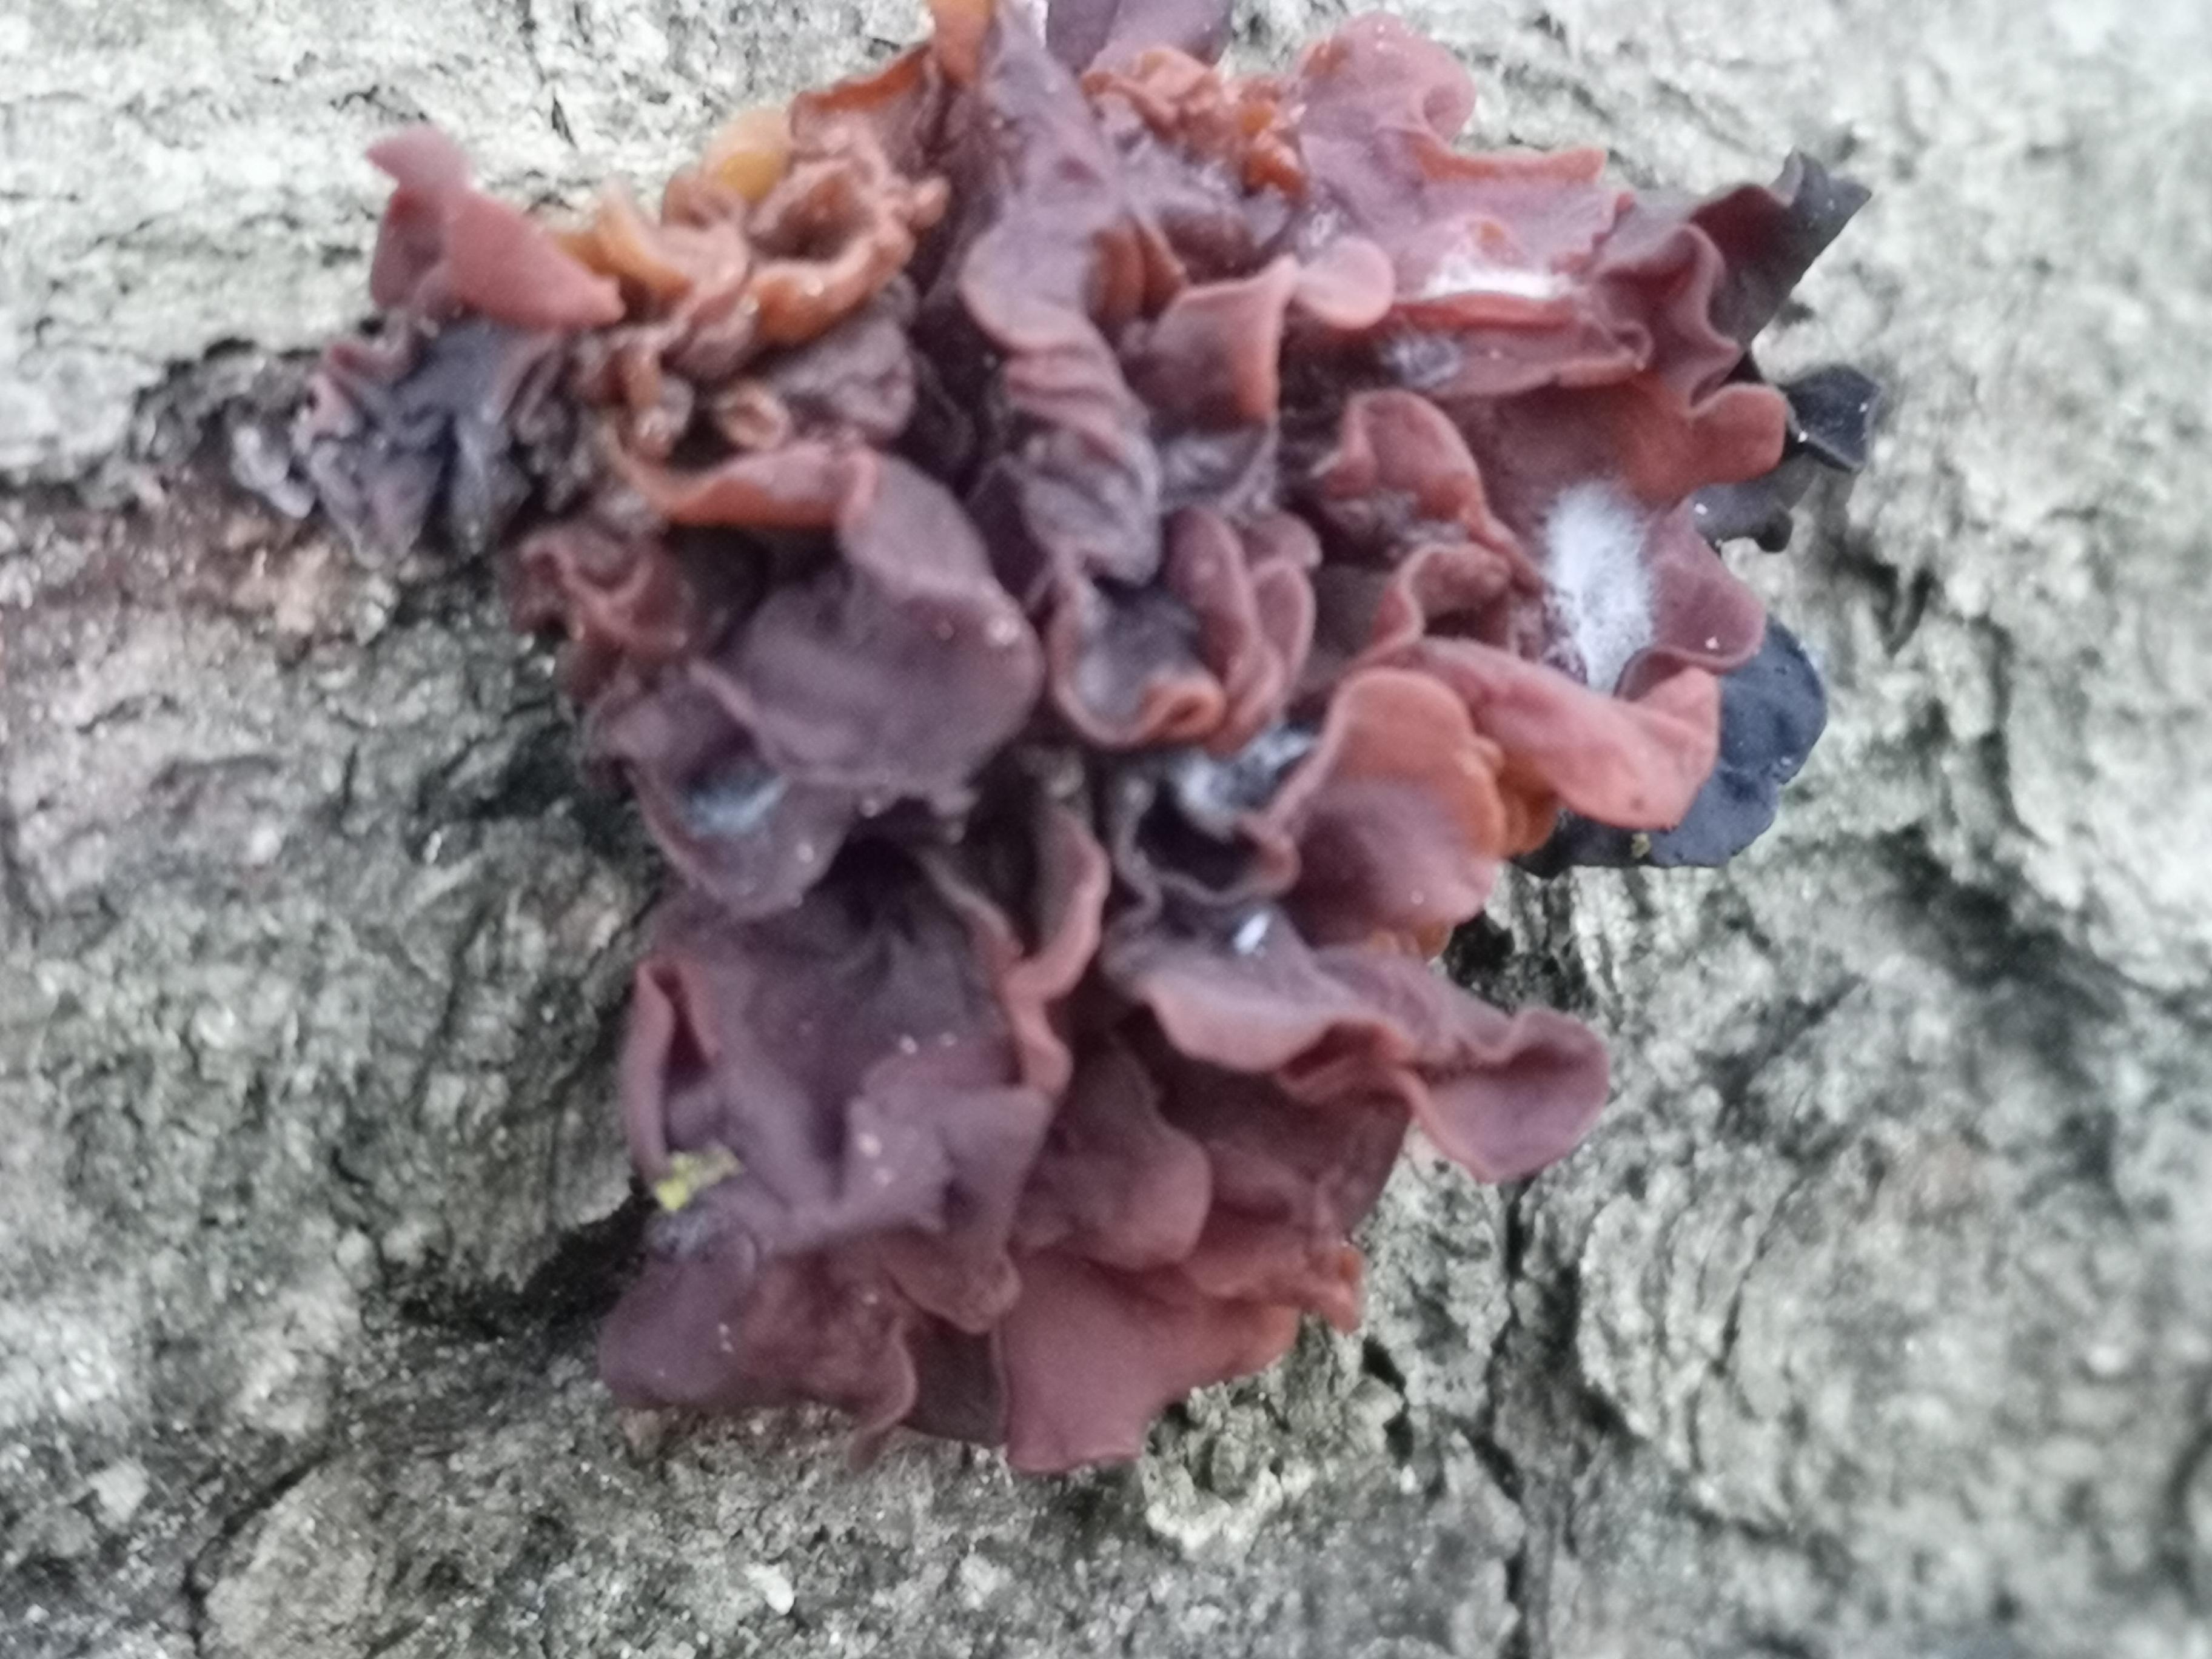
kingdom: Fungi
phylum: Basidiomycota
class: Tremellomycetes
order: Tremellales
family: Tremellaceae
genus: Phaeotremella
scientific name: Phaeotremella foliacea
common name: brun bævresvamp
